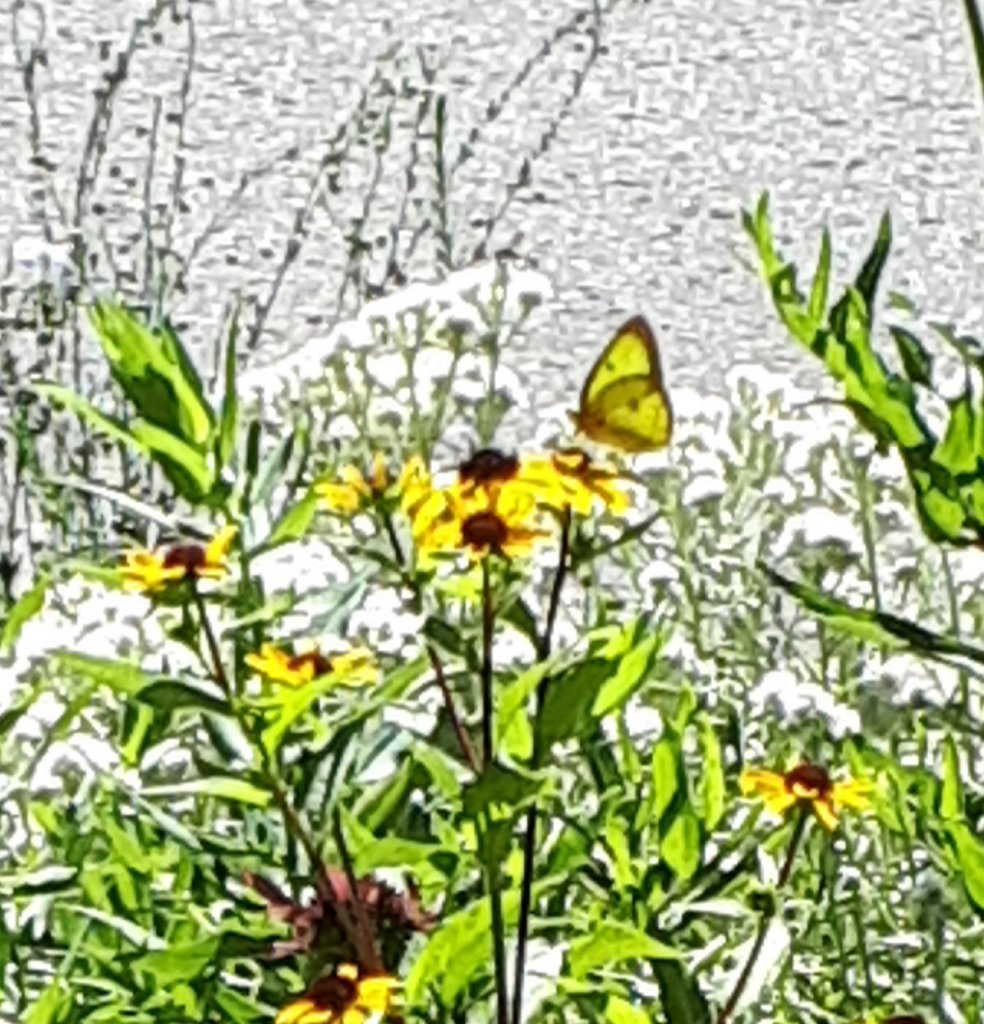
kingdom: Animalia
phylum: Arthropoda
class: Insecta
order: Lepidoptera
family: Pieridae
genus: Colias
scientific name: Colias philodice
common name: Clouded Sulphur
